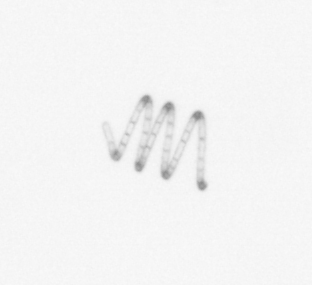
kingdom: Chromista
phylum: Ochrophyta
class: Bacillariophyceae
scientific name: Bacillariophyceae
